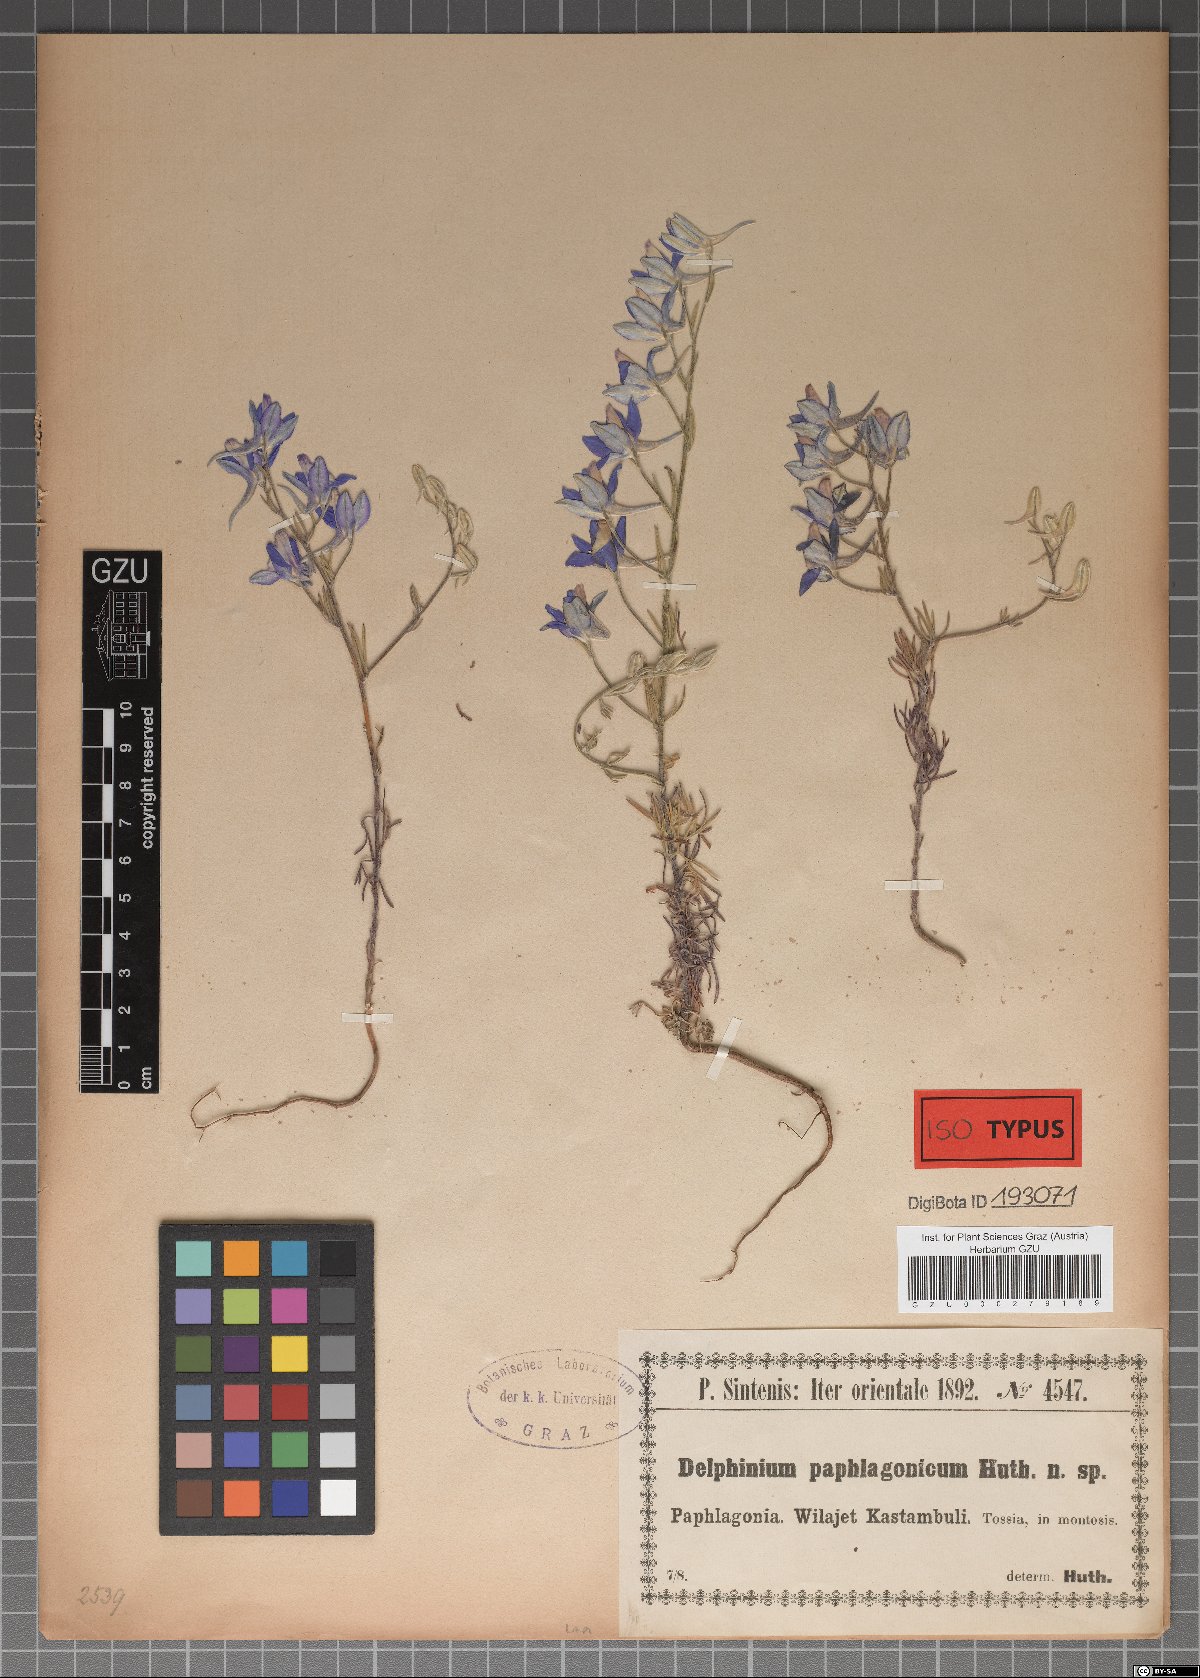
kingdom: Plantae
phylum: Tracheophyta
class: Magnoliopsida
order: Ranunculales
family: Ranunculaceae
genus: Delphinium
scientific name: Delphinium hellesponticum
